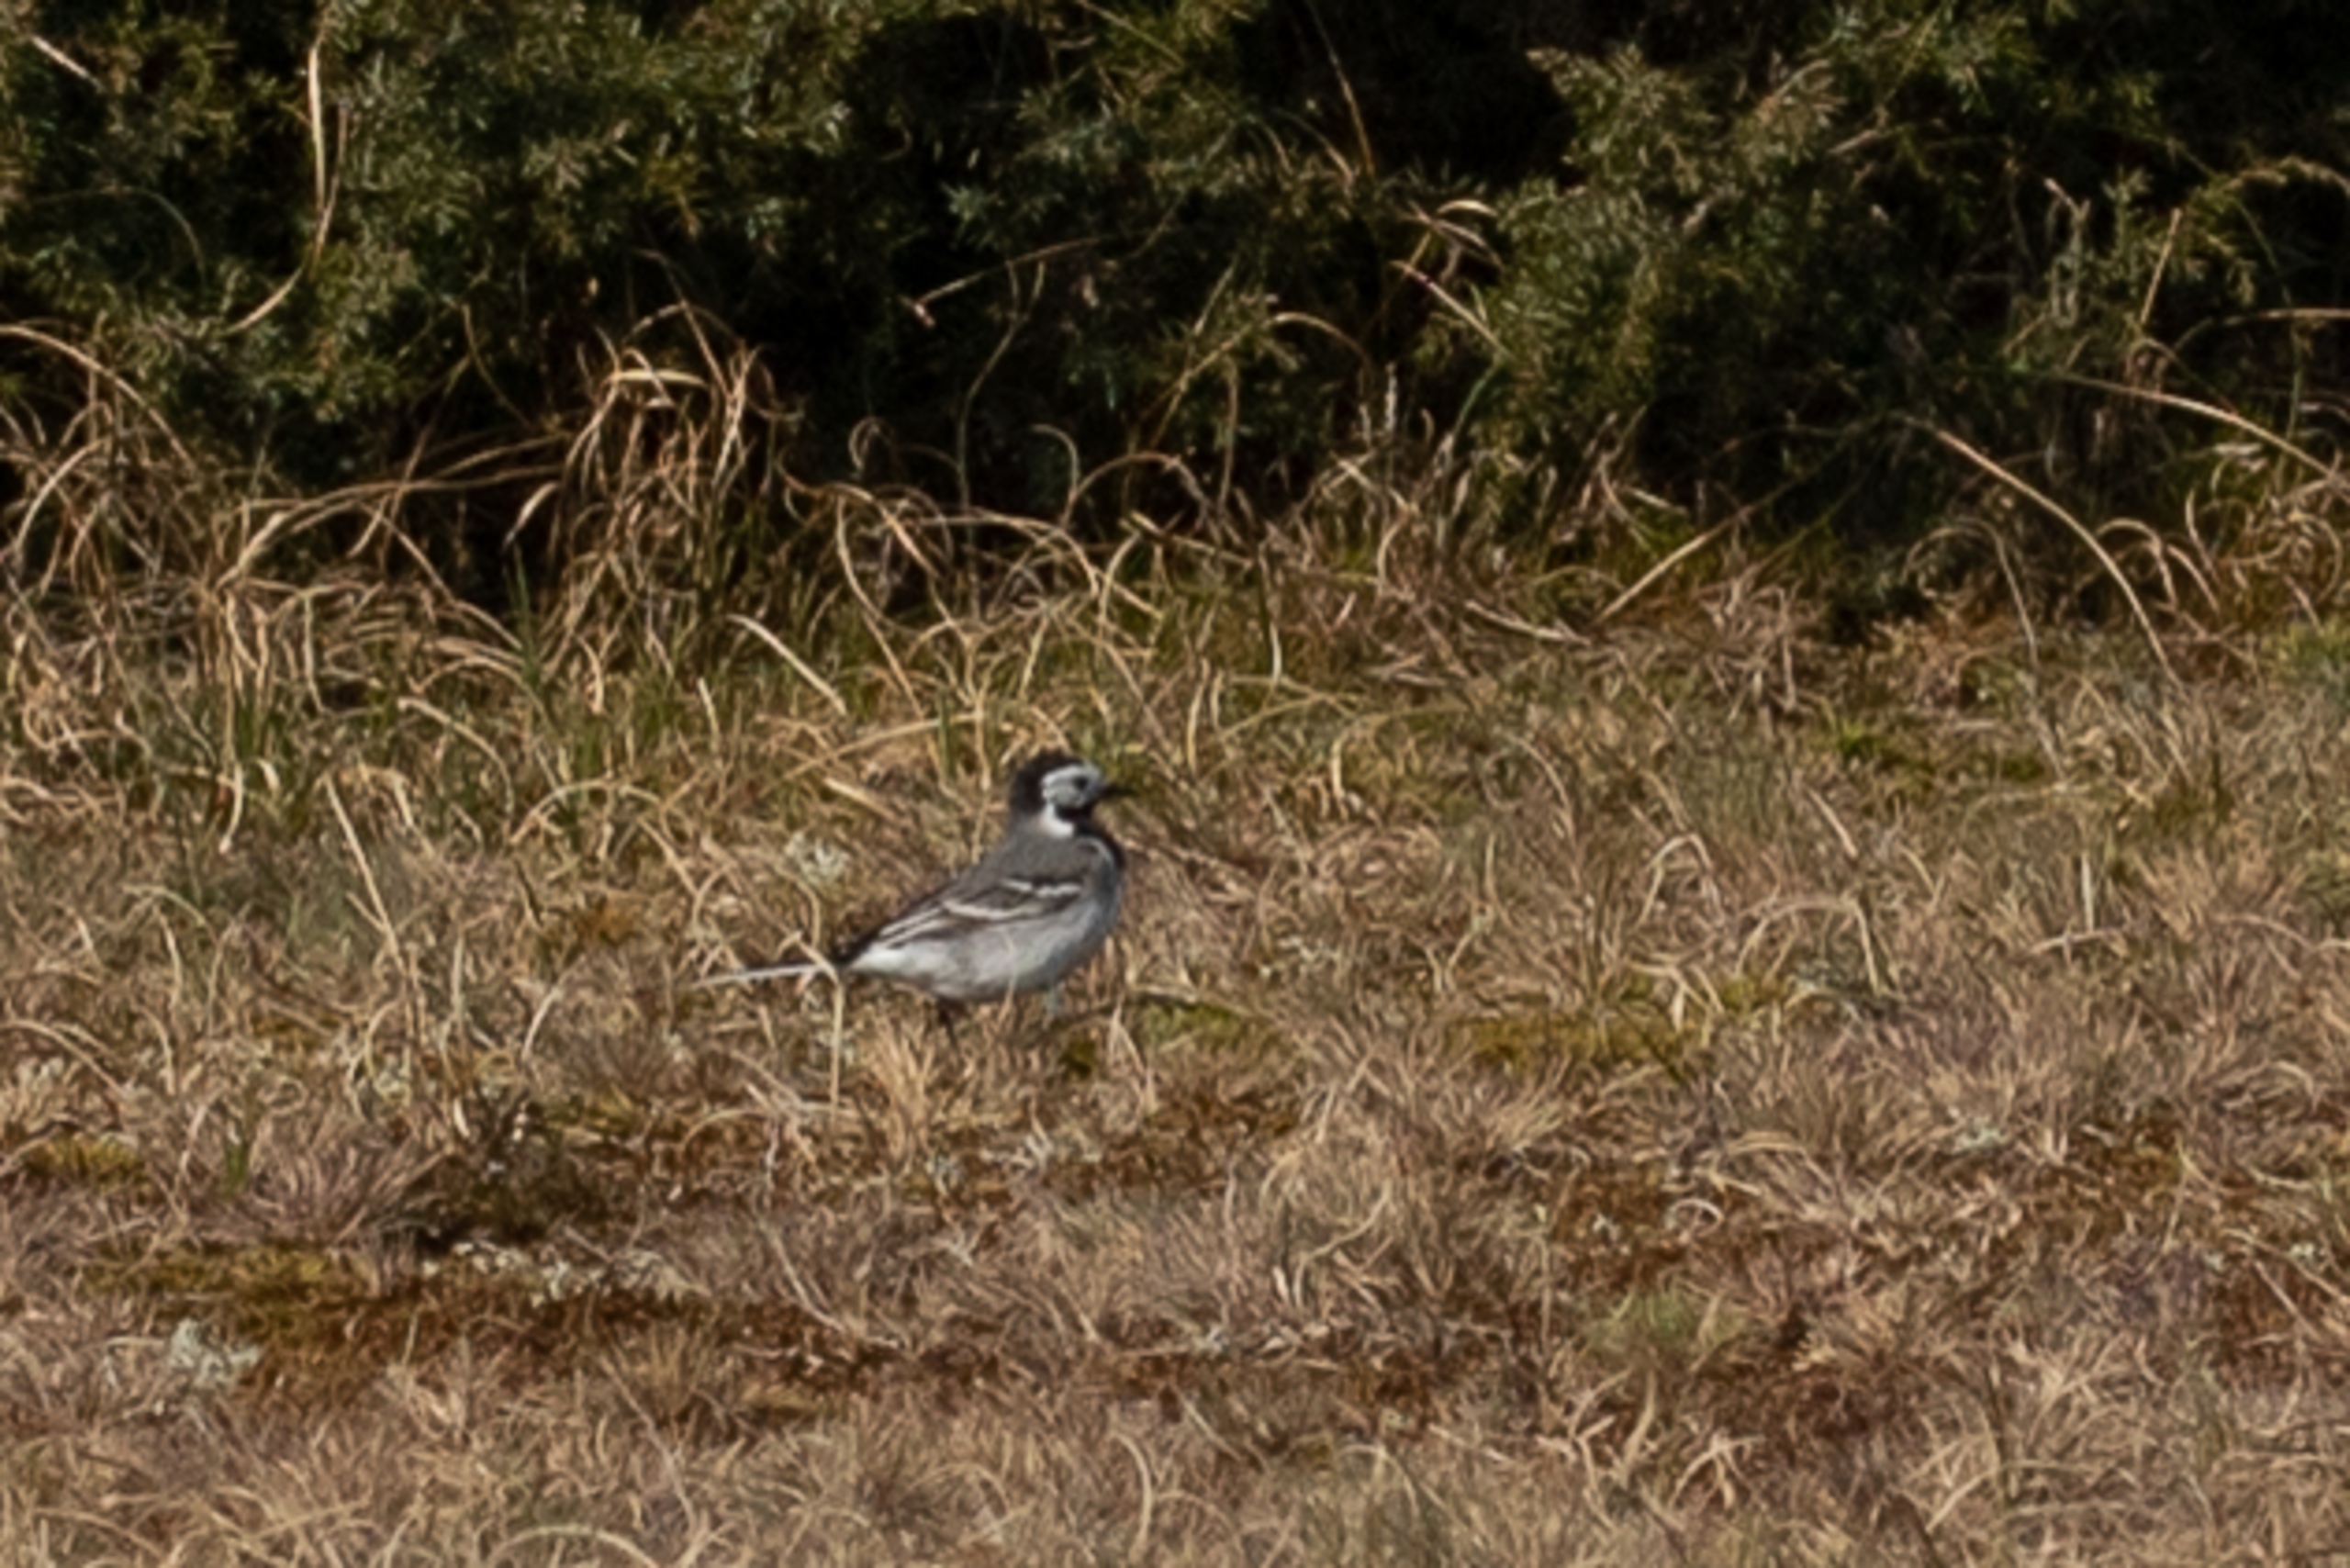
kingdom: Animalia
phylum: Chordata
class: Aves
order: Passeriformes
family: Motacillidae
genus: Motacilla
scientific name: Motacilla alba
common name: Hvid vipstjert
